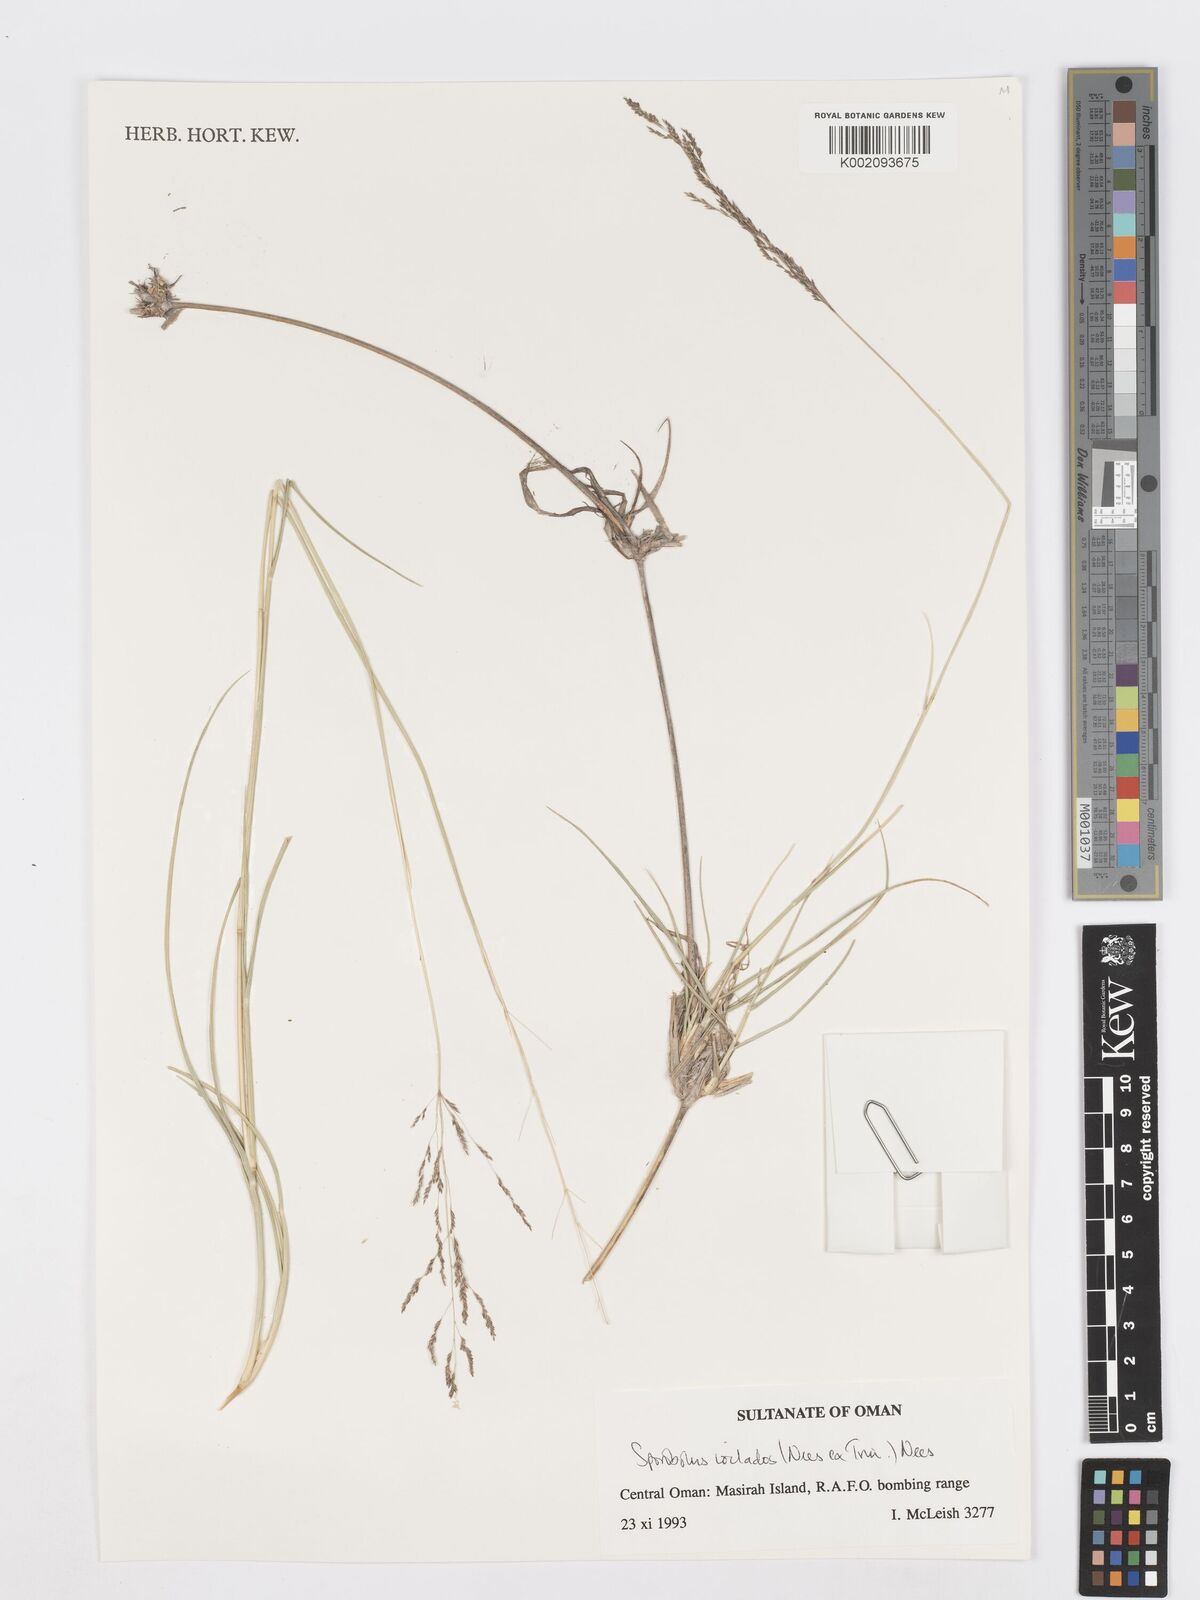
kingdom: Plantae
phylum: Tracheophyta
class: Liliopsida
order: Poales
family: Poaceae
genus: Sporobolus
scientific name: Sporobolus ioclados
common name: Pan dropseed
